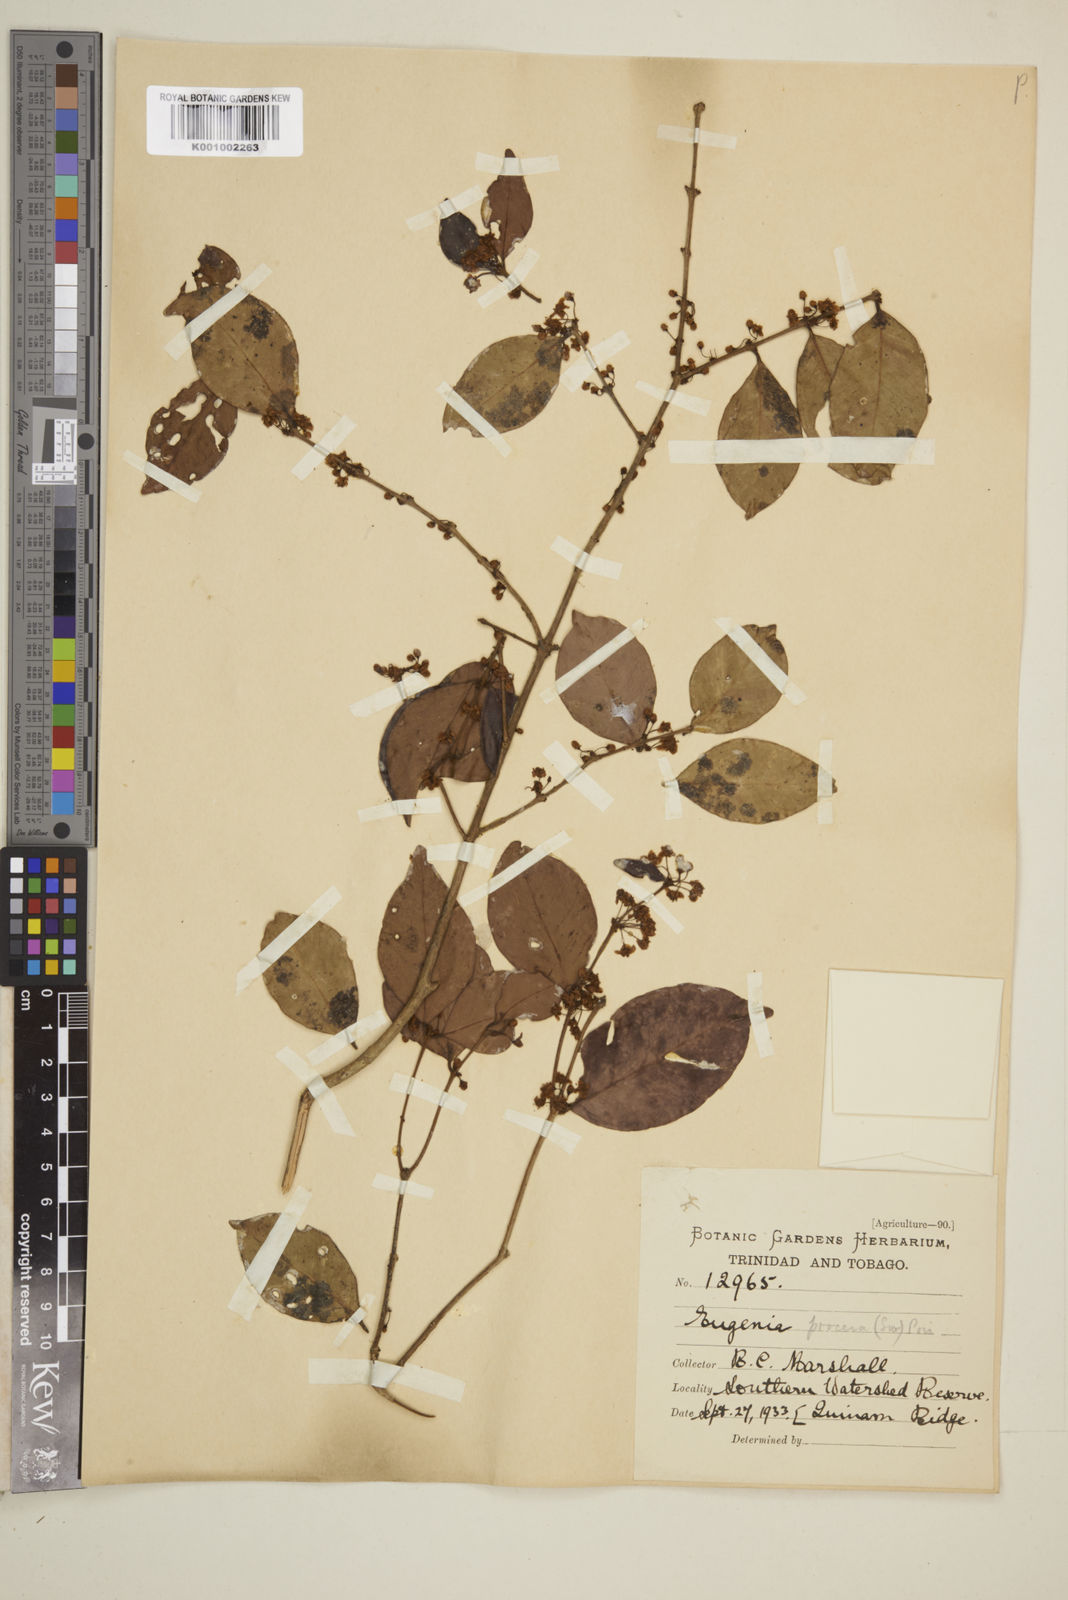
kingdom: Plantae
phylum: Tracheophyta
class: Magnoliopsida
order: Myrtales
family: Myrtaceae
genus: Eugenia
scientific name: Eugenia procera
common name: Bastard blackberry
